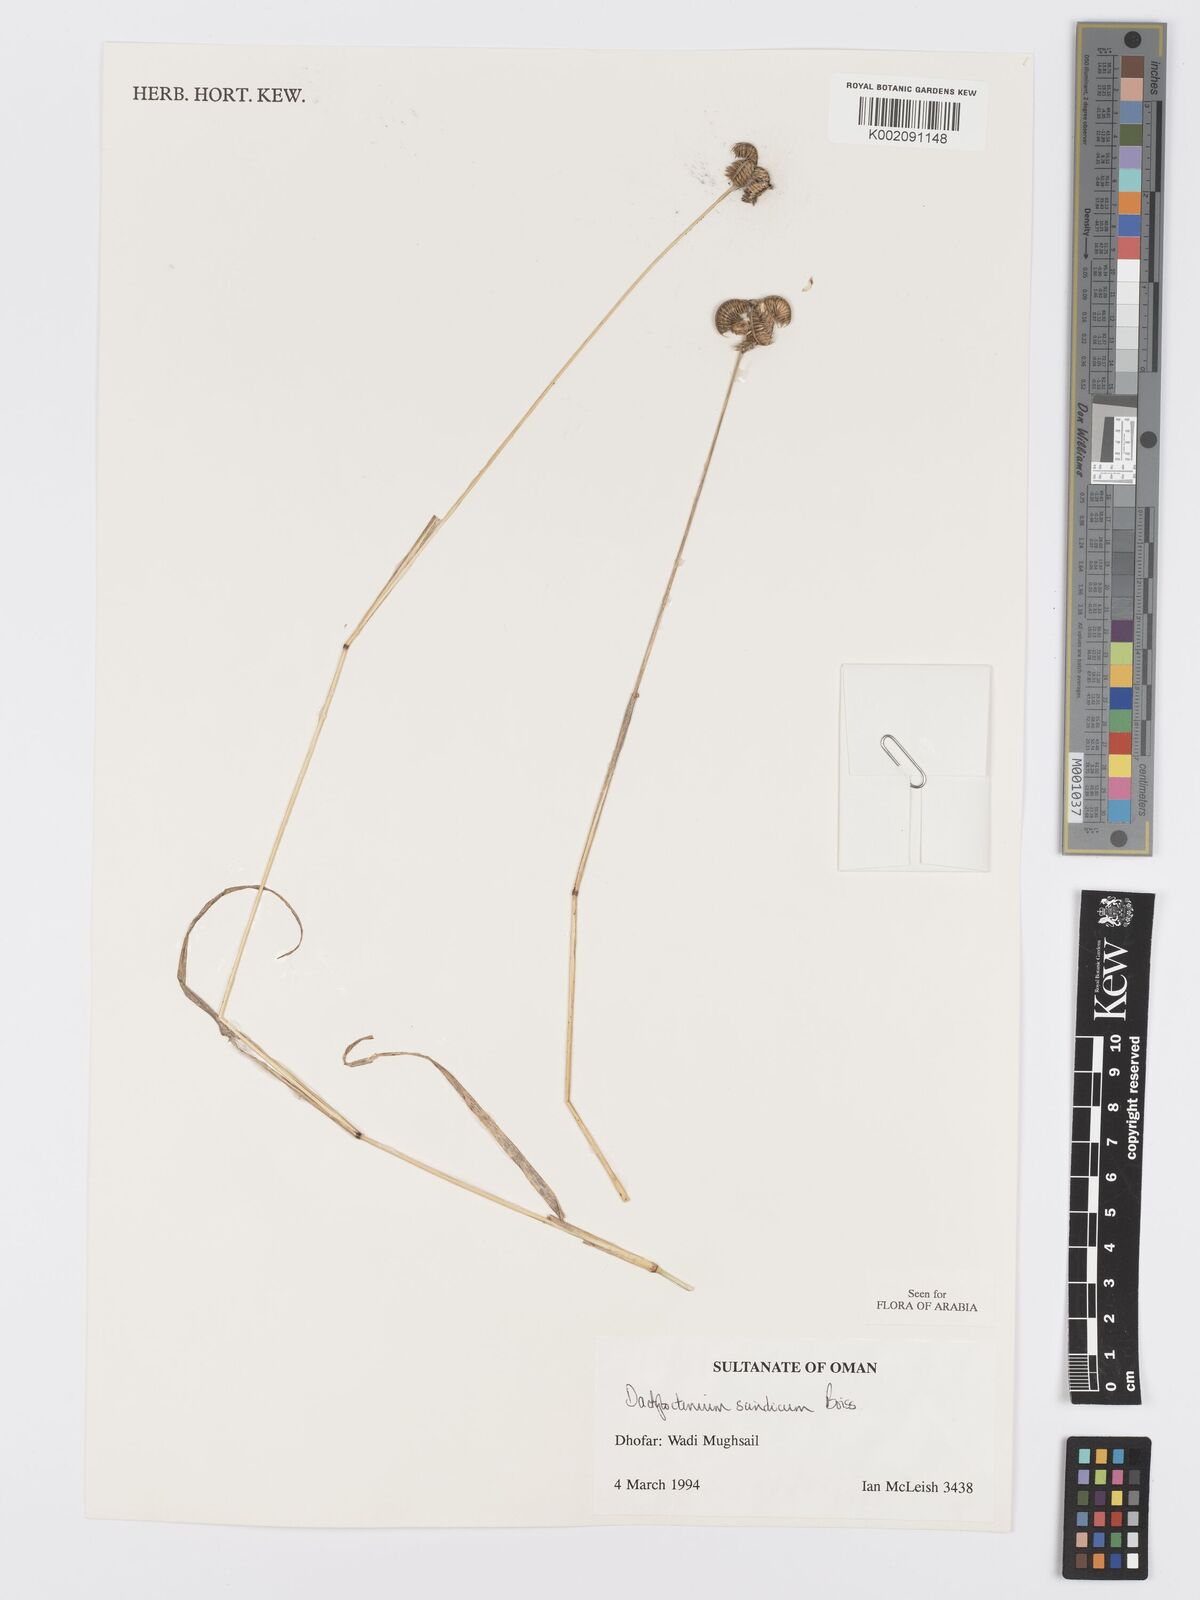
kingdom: Plantae
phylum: Tracheophyta
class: Liliopsida
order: Poales
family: Poaceae
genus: Dactyloctenium
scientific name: Dactyloctenium scindicum
